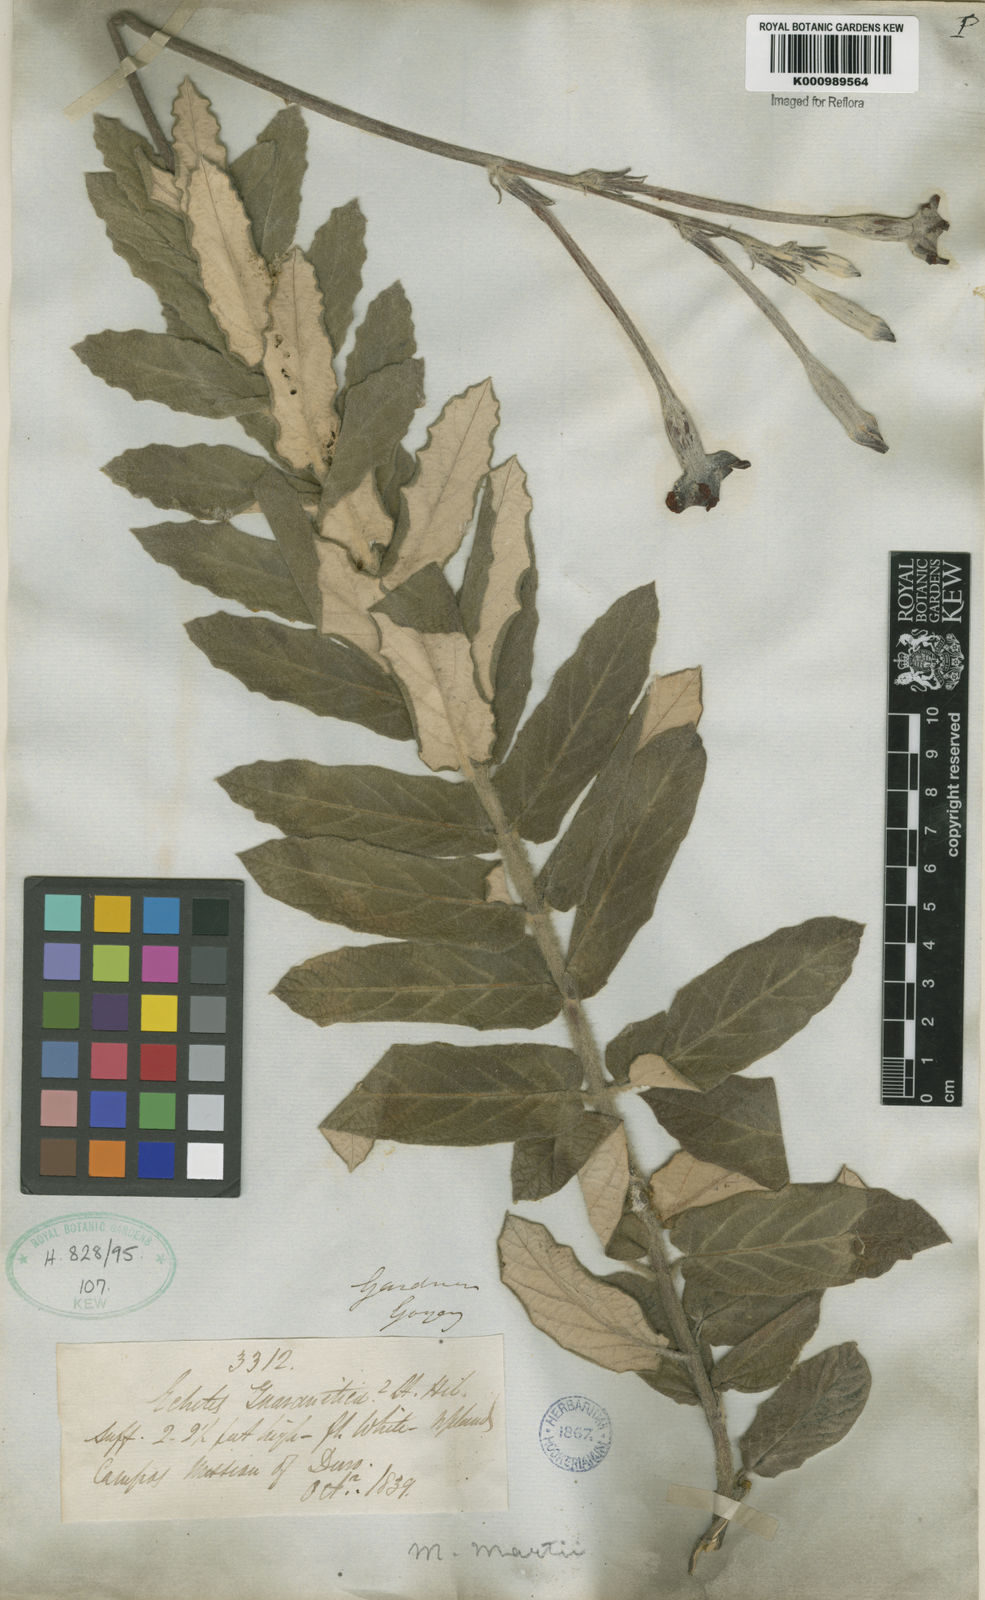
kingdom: Plantae
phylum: Tracheophyta
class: Magnoliopsida
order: Gentianales
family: Apocynaceae
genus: Mandevilla
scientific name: Mandevilla
